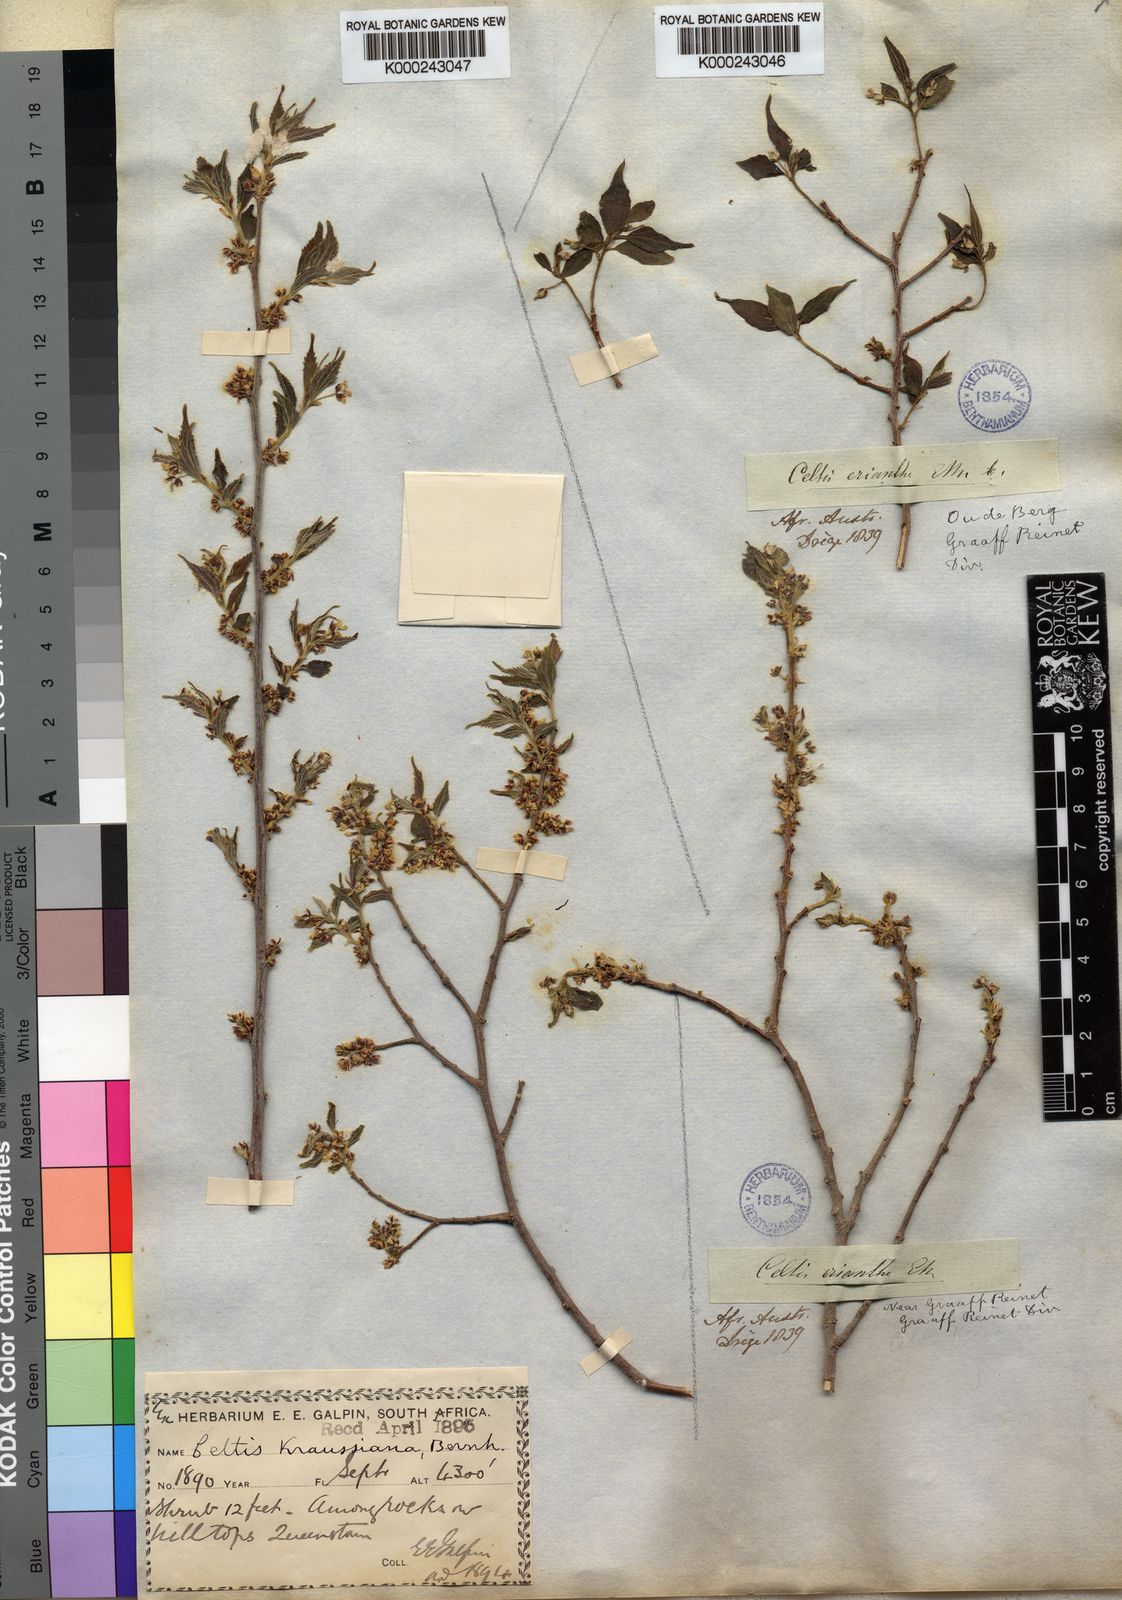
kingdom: Plantae
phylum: Tracheophyta
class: Magnoliopsida
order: Rosales
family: Cannabaceae
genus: Celtis
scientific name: Celtis africana
